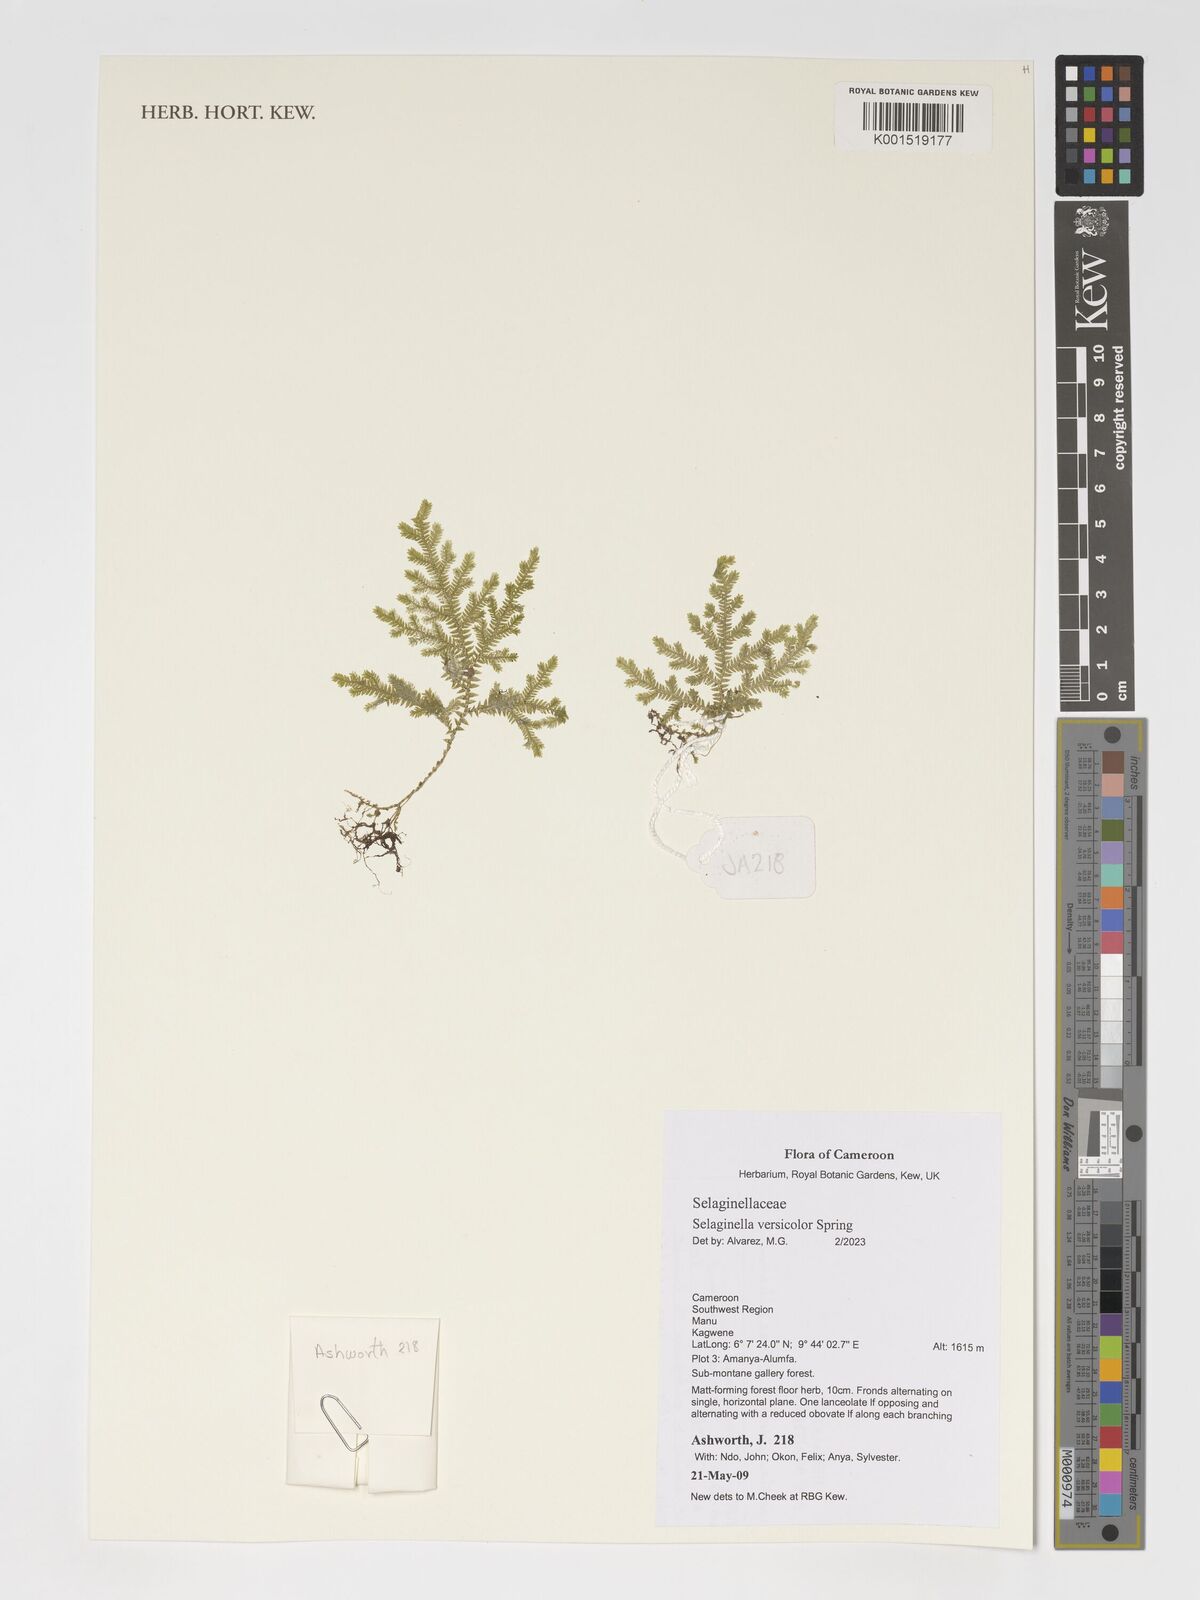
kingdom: Plantae
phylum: Tracheophyta
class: Lycopodiopsida
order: Selaginellales
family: Selaginellaceae
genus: Selaginella
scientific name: Selaginella versicolor
